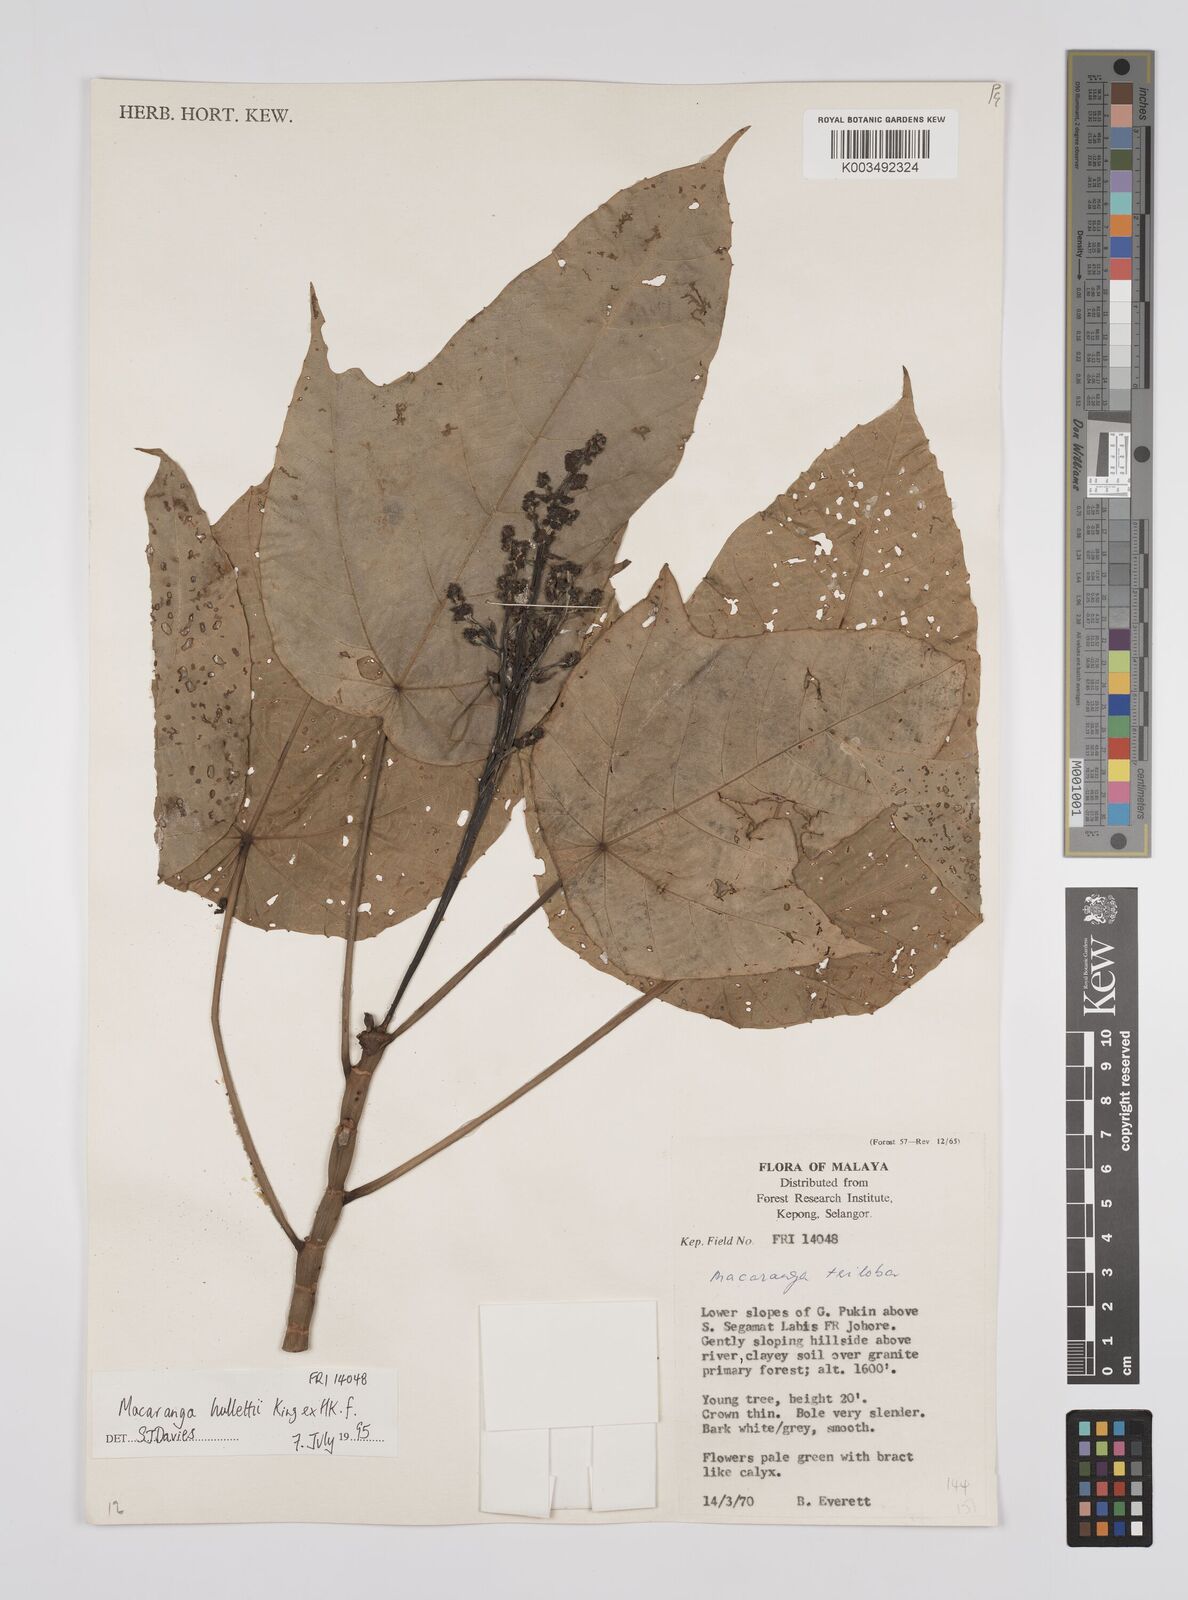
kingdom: Plantae
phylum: Tracheophyta
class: Magnoliopsida
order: Malpighiales
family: Euphorbiaceae
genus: Macaranga
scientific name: Macaranga hullettii
